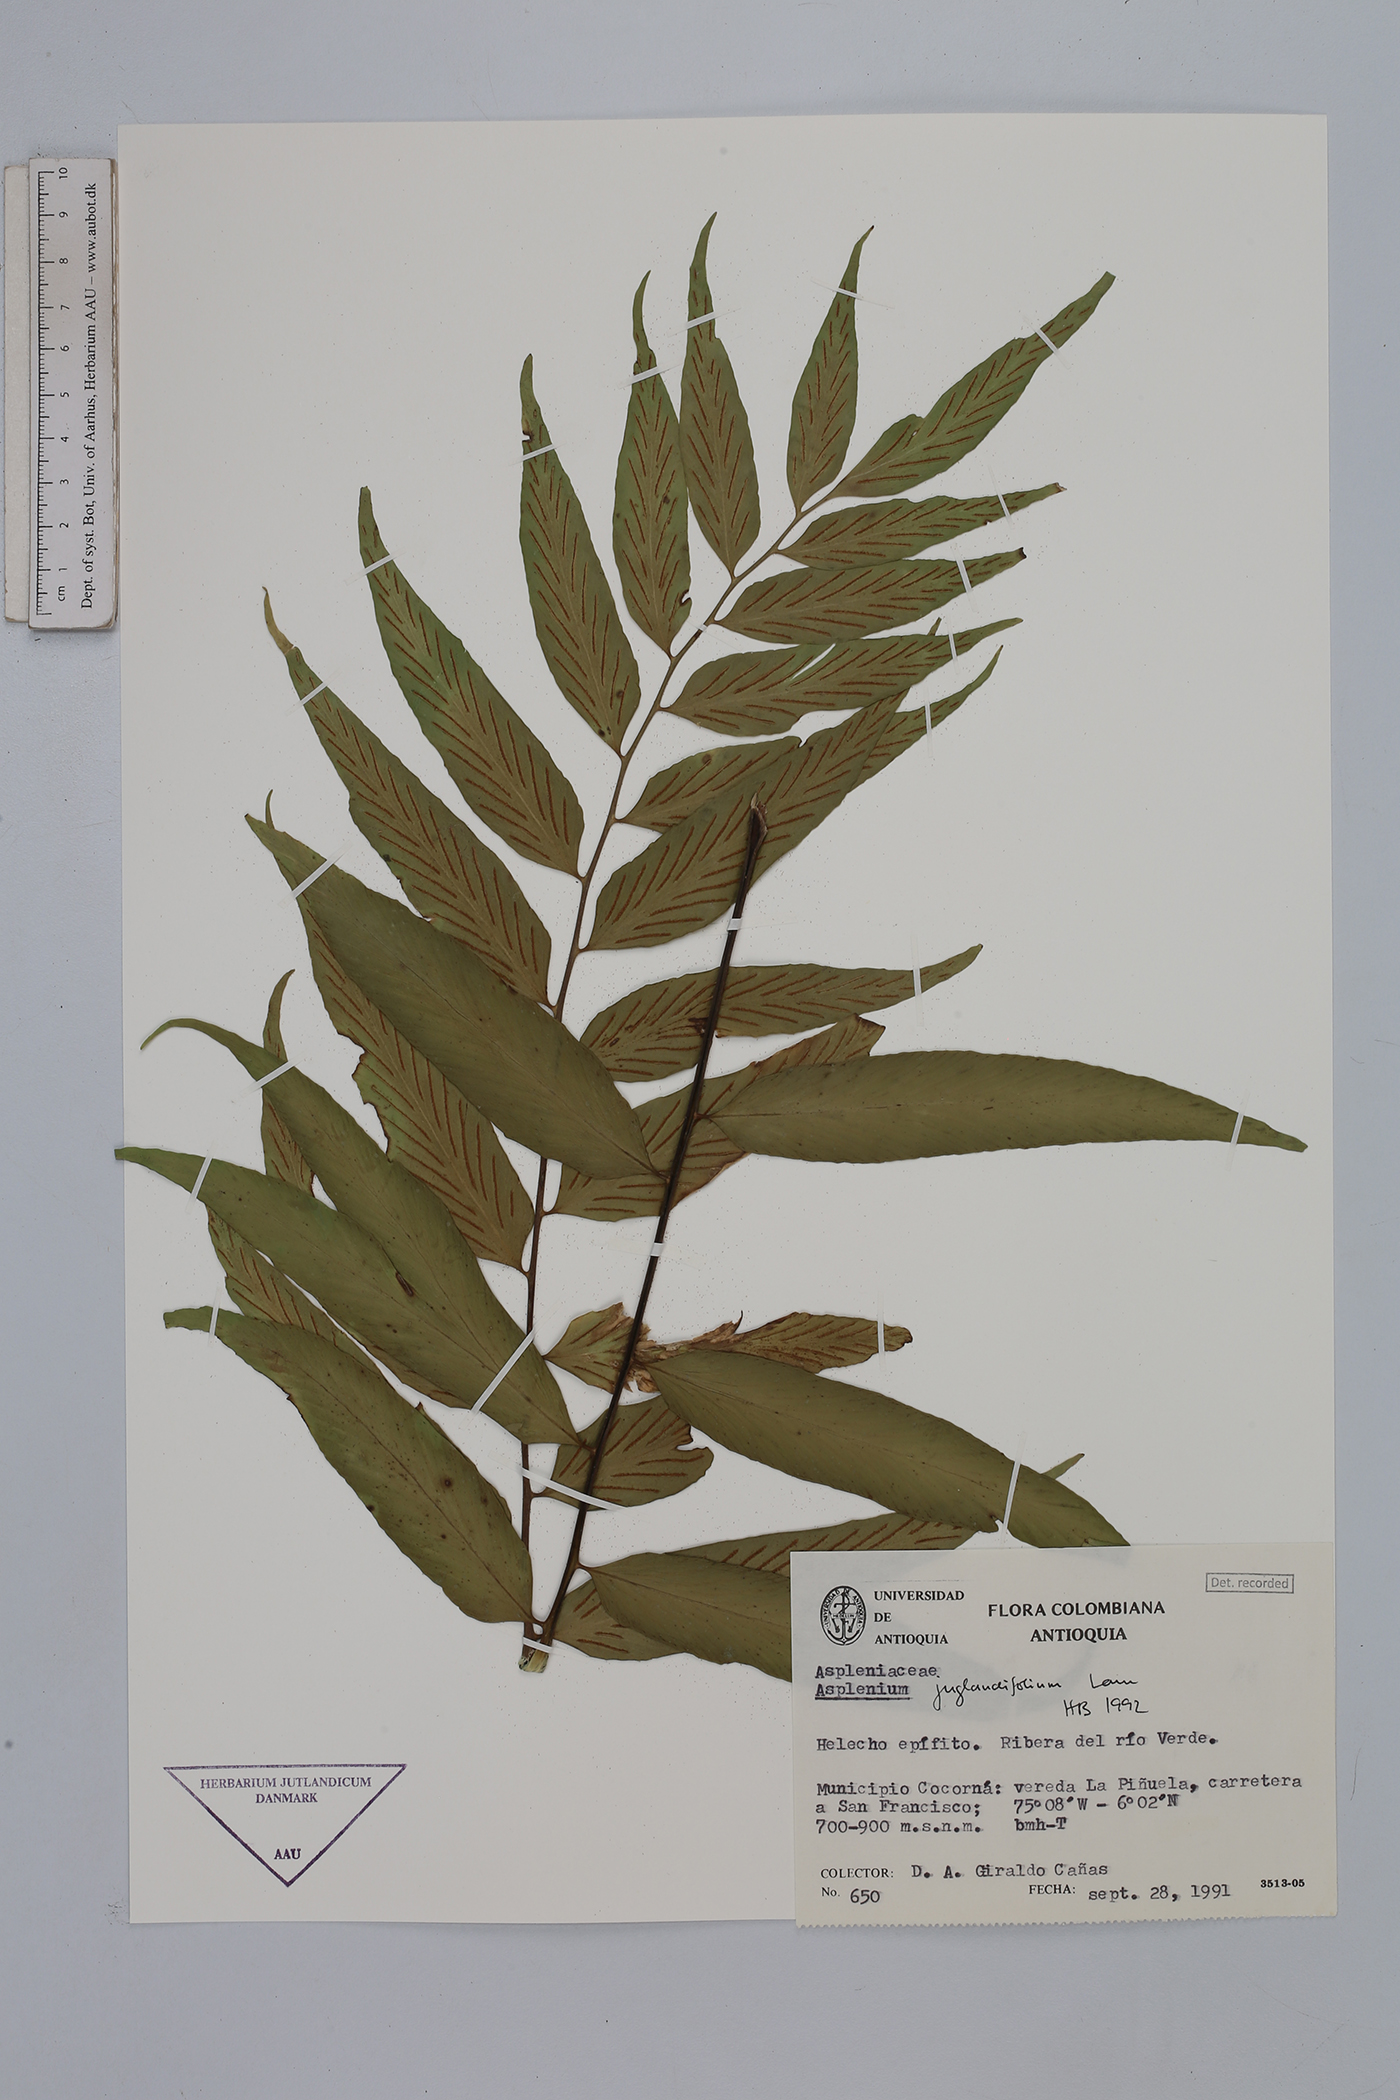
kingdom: Plantae
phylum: Tracheophyta
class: Polypodiopsida
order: Polypodiales
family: Aspleniaceae
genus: Asplenium
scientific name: Asplenium juglandifolium
